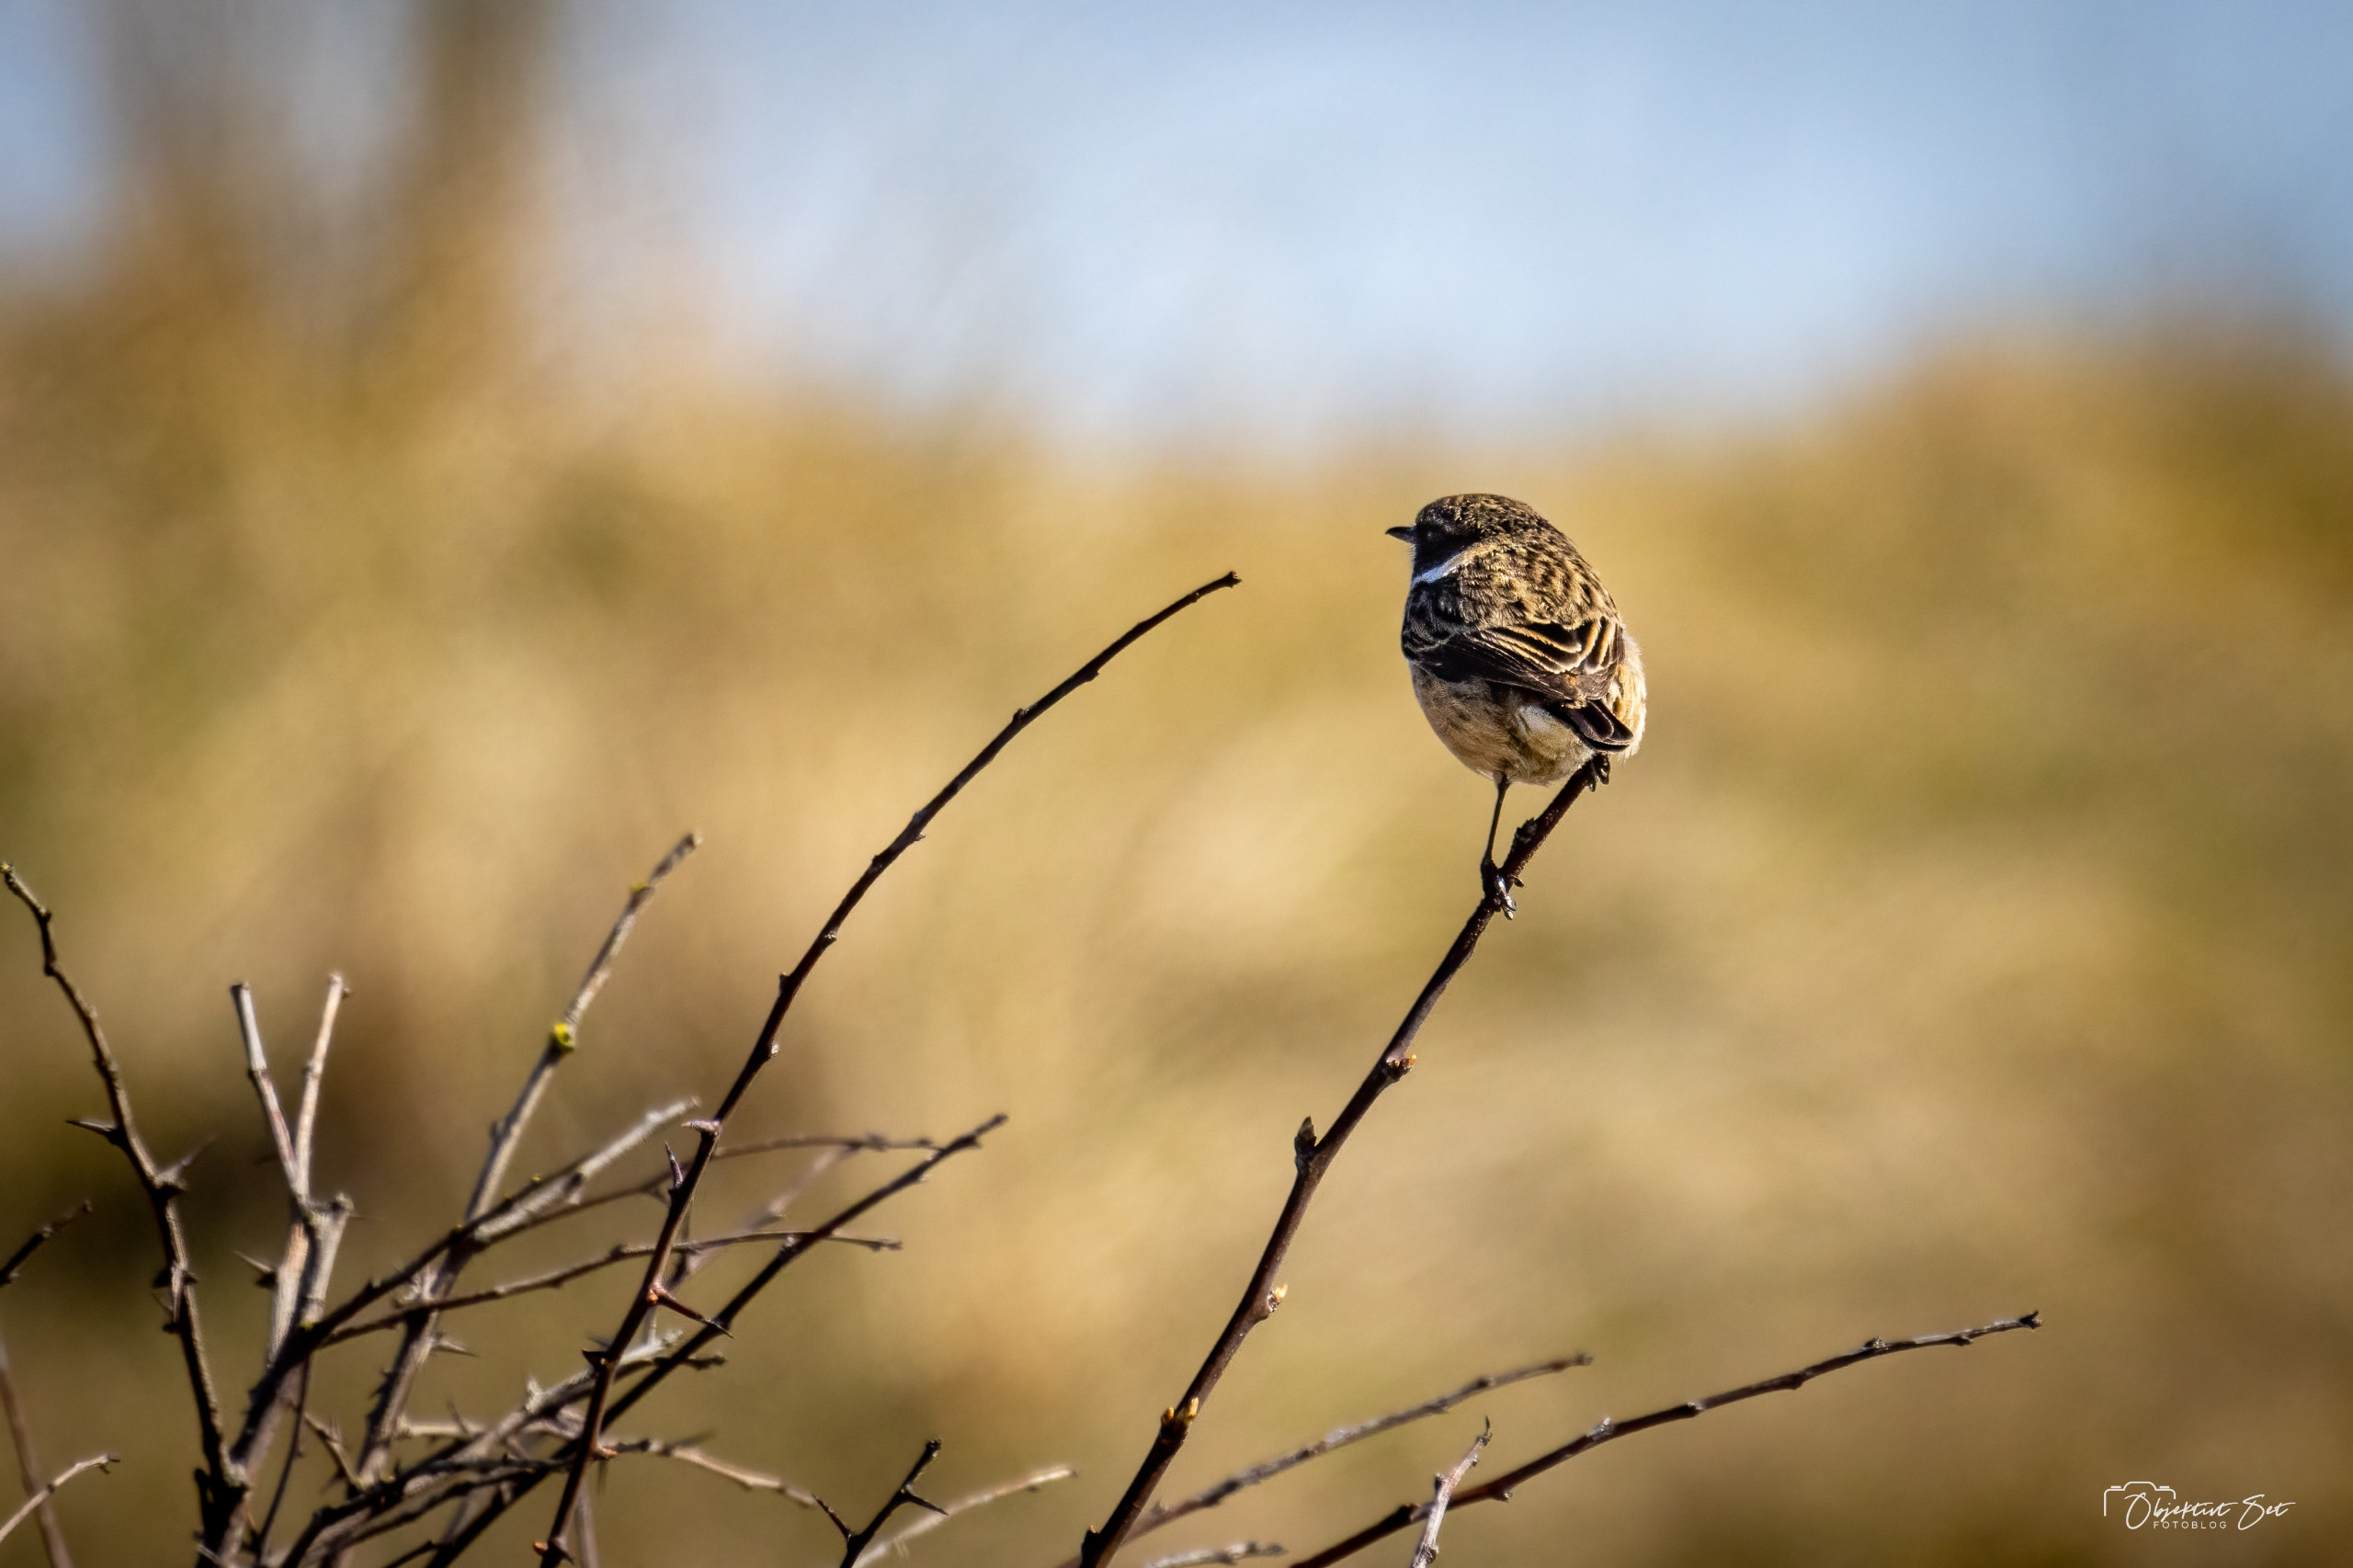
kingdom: Animalia
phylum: Chordata
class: Aves
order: Passeriformes
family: Muscicapidae
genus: Saxicola
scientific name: Saxicola rubicola
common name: Sortstrubet bynkefugl
